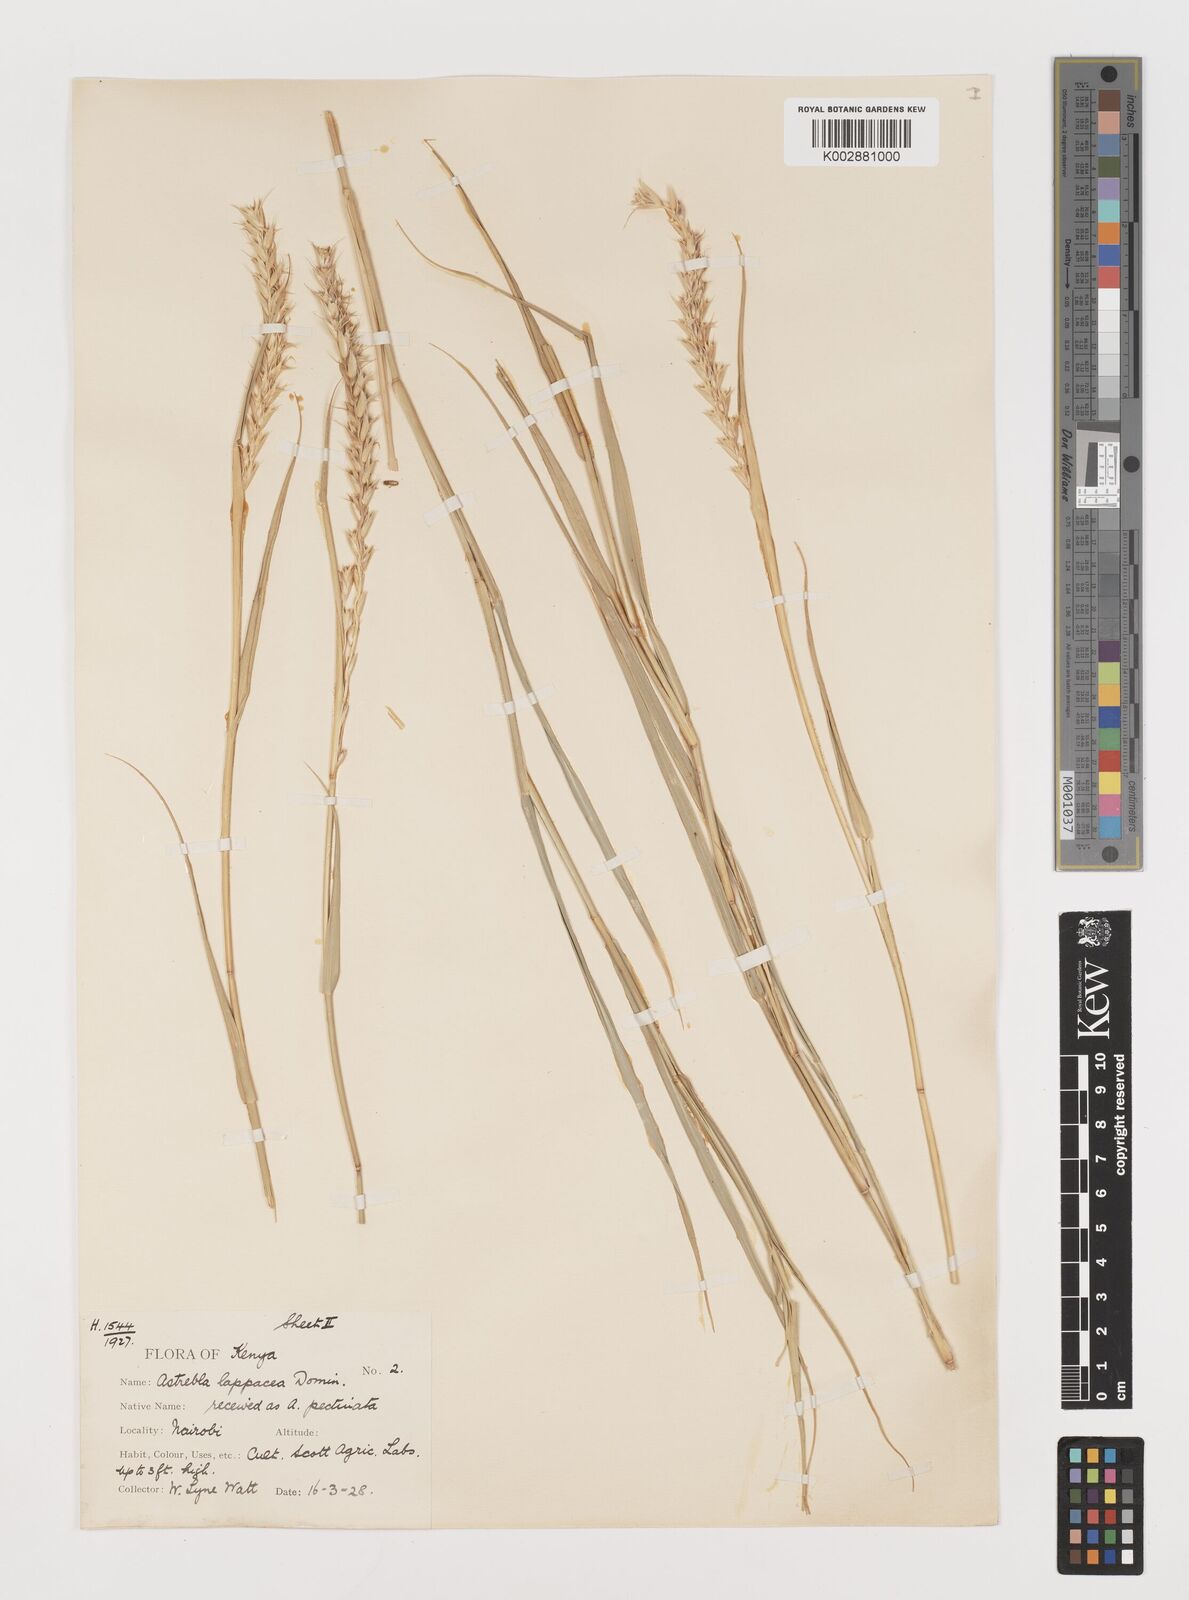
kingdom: Plantae
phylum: Tracheophyta
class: Liliopsida
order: Poales
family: Poaceae
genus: Astrebla
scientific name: Astrebla lappacea
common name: Curly mitchell grass
